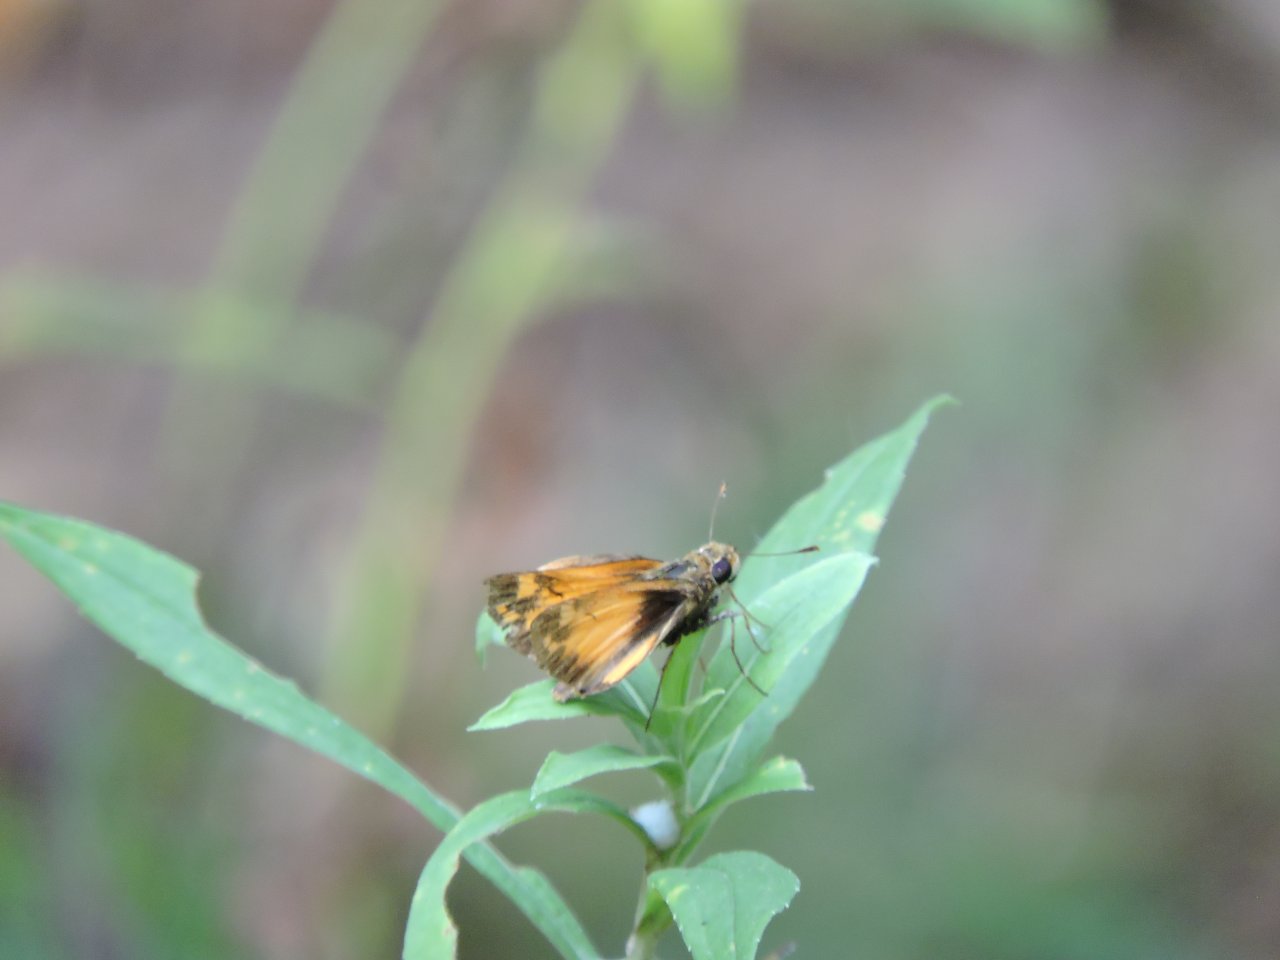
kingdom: Animalia
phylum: Arthropoda
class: Insecta
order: Lepidoptera
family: Hesperiidae
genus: Lon
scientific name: Lon zabulon
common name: Zabulon Skipper
